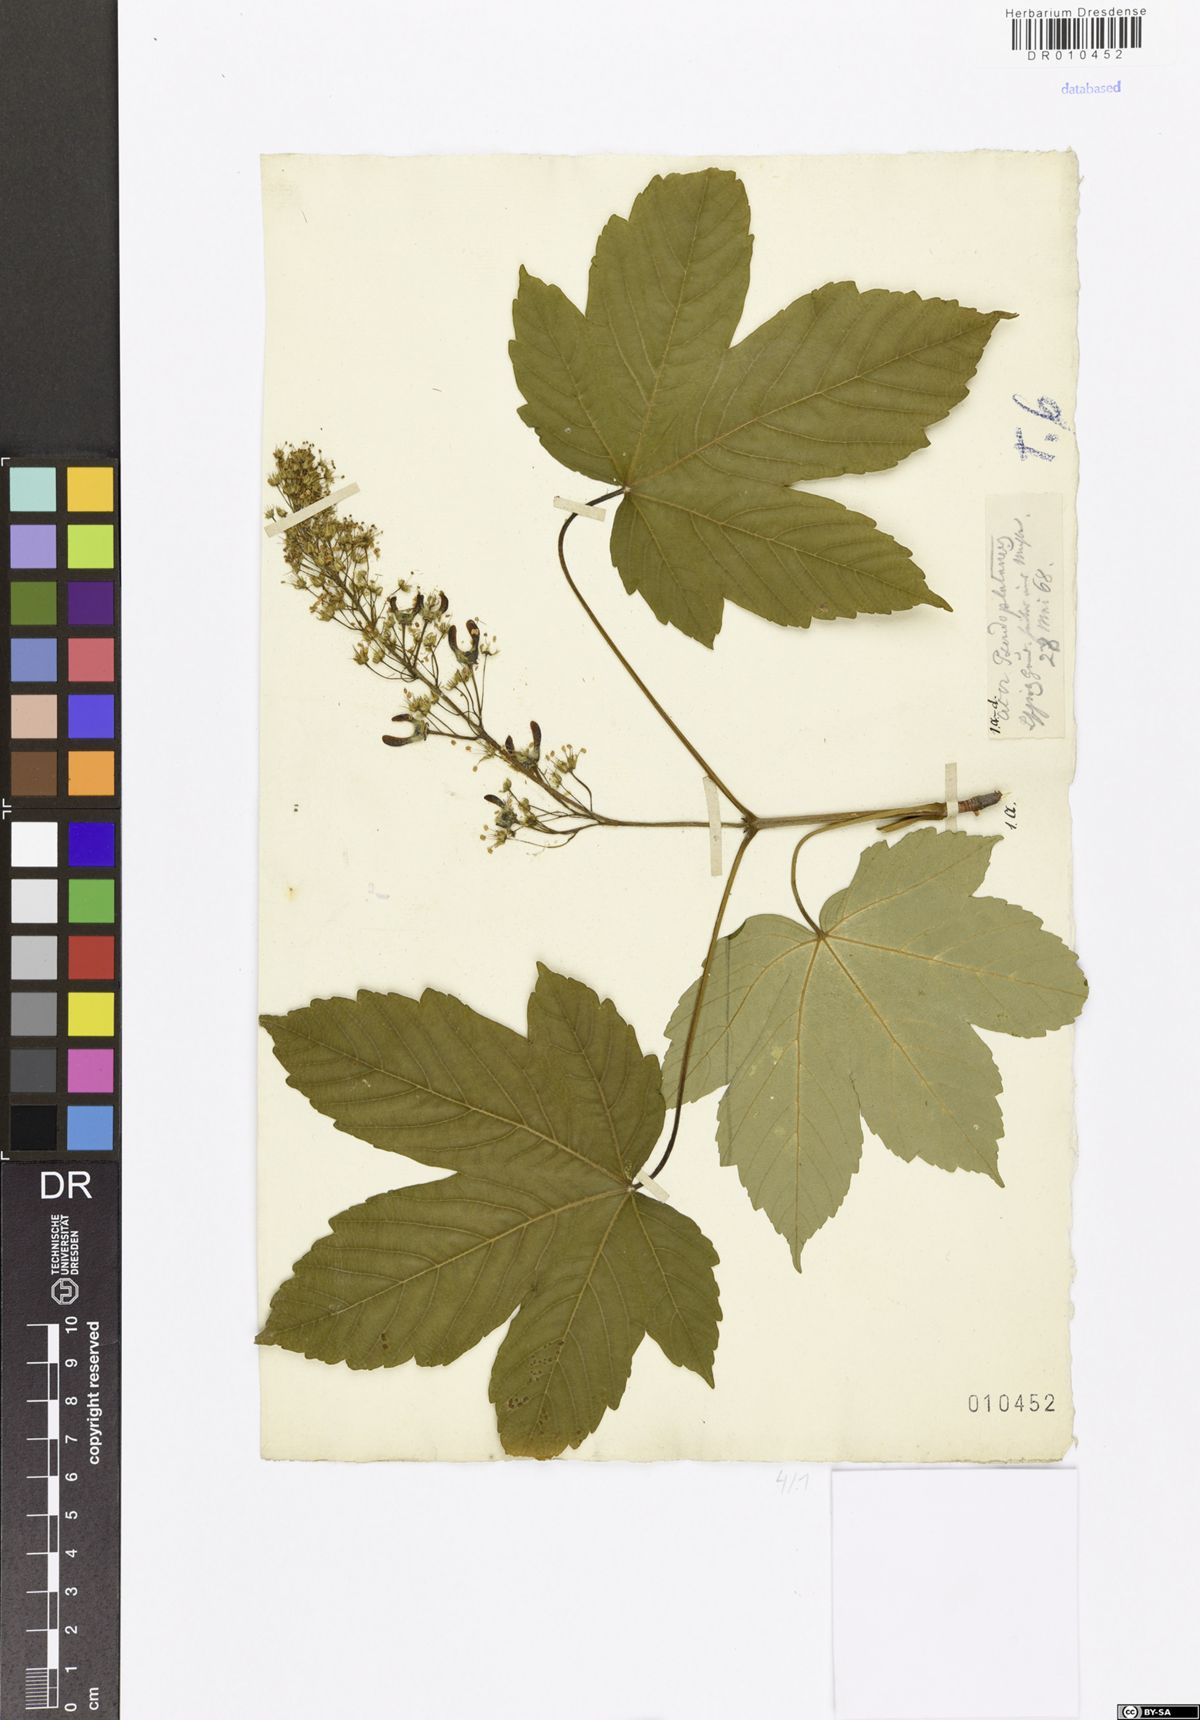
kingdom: Plantae
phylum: Tracheophyta
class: Magnoliopsida
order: Sapindales
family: Sapindaceae
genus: Acer
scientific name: Acer pseudoplatanus
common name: Sycamore
